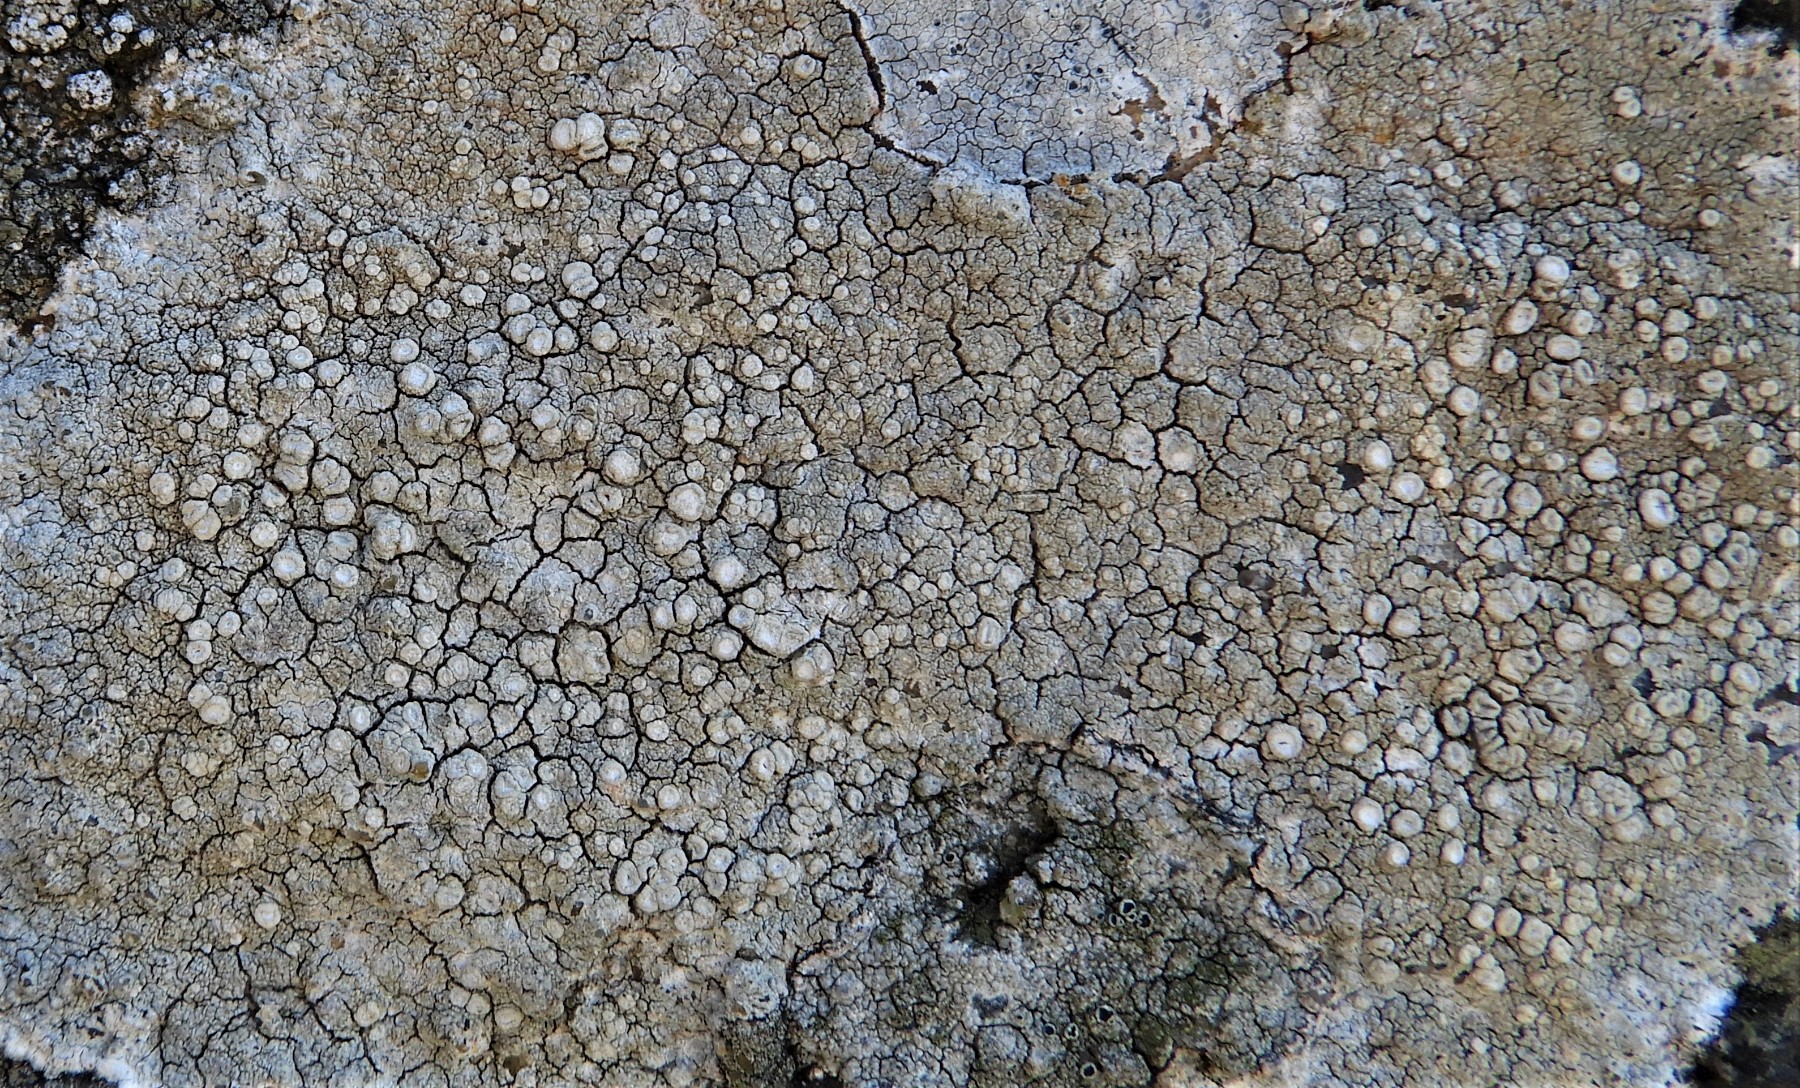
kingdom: Fungi
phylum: Ascomycota
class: Lecanoromycetes
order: Pertusariales
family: Ochrolechiaceae
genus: Ochrolechia
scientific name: Ochrolechia parella
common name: almindelig blegskivelav
